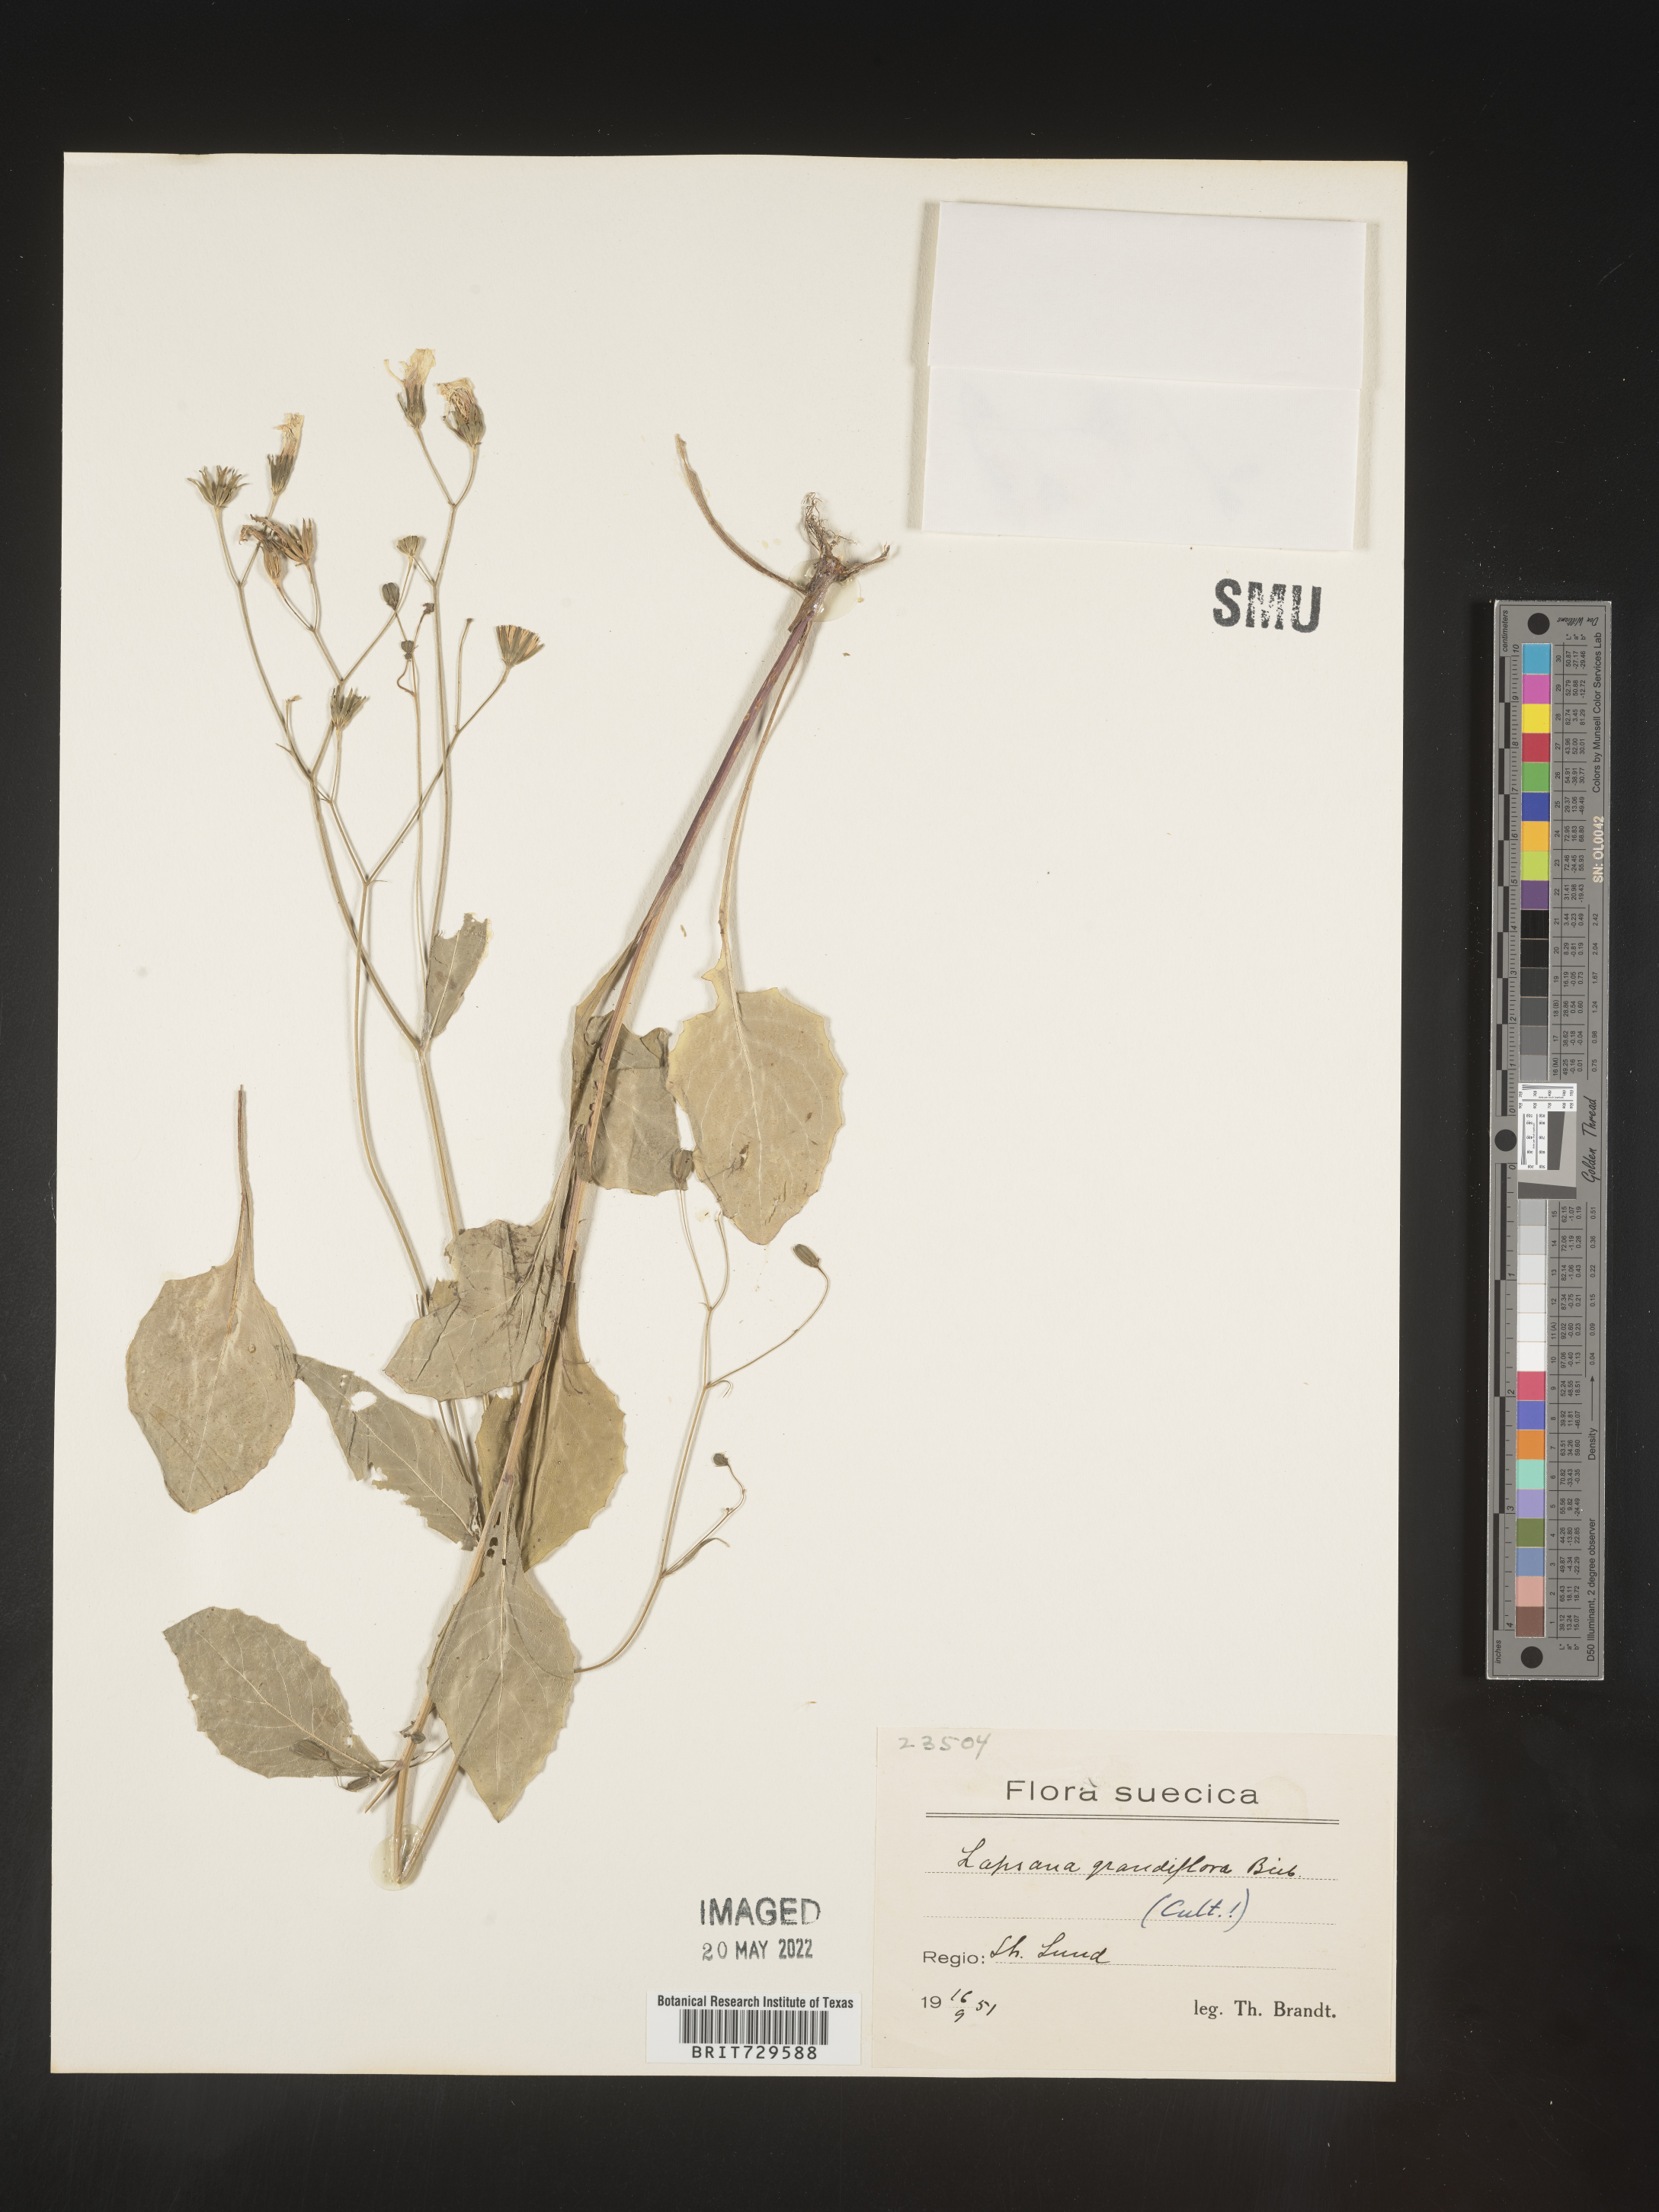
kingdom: Plantae
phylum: Tracheophyta
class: Magnoliopsida
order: Asterales
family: Asteraceae
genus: Lapsana
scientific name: Lapsana
